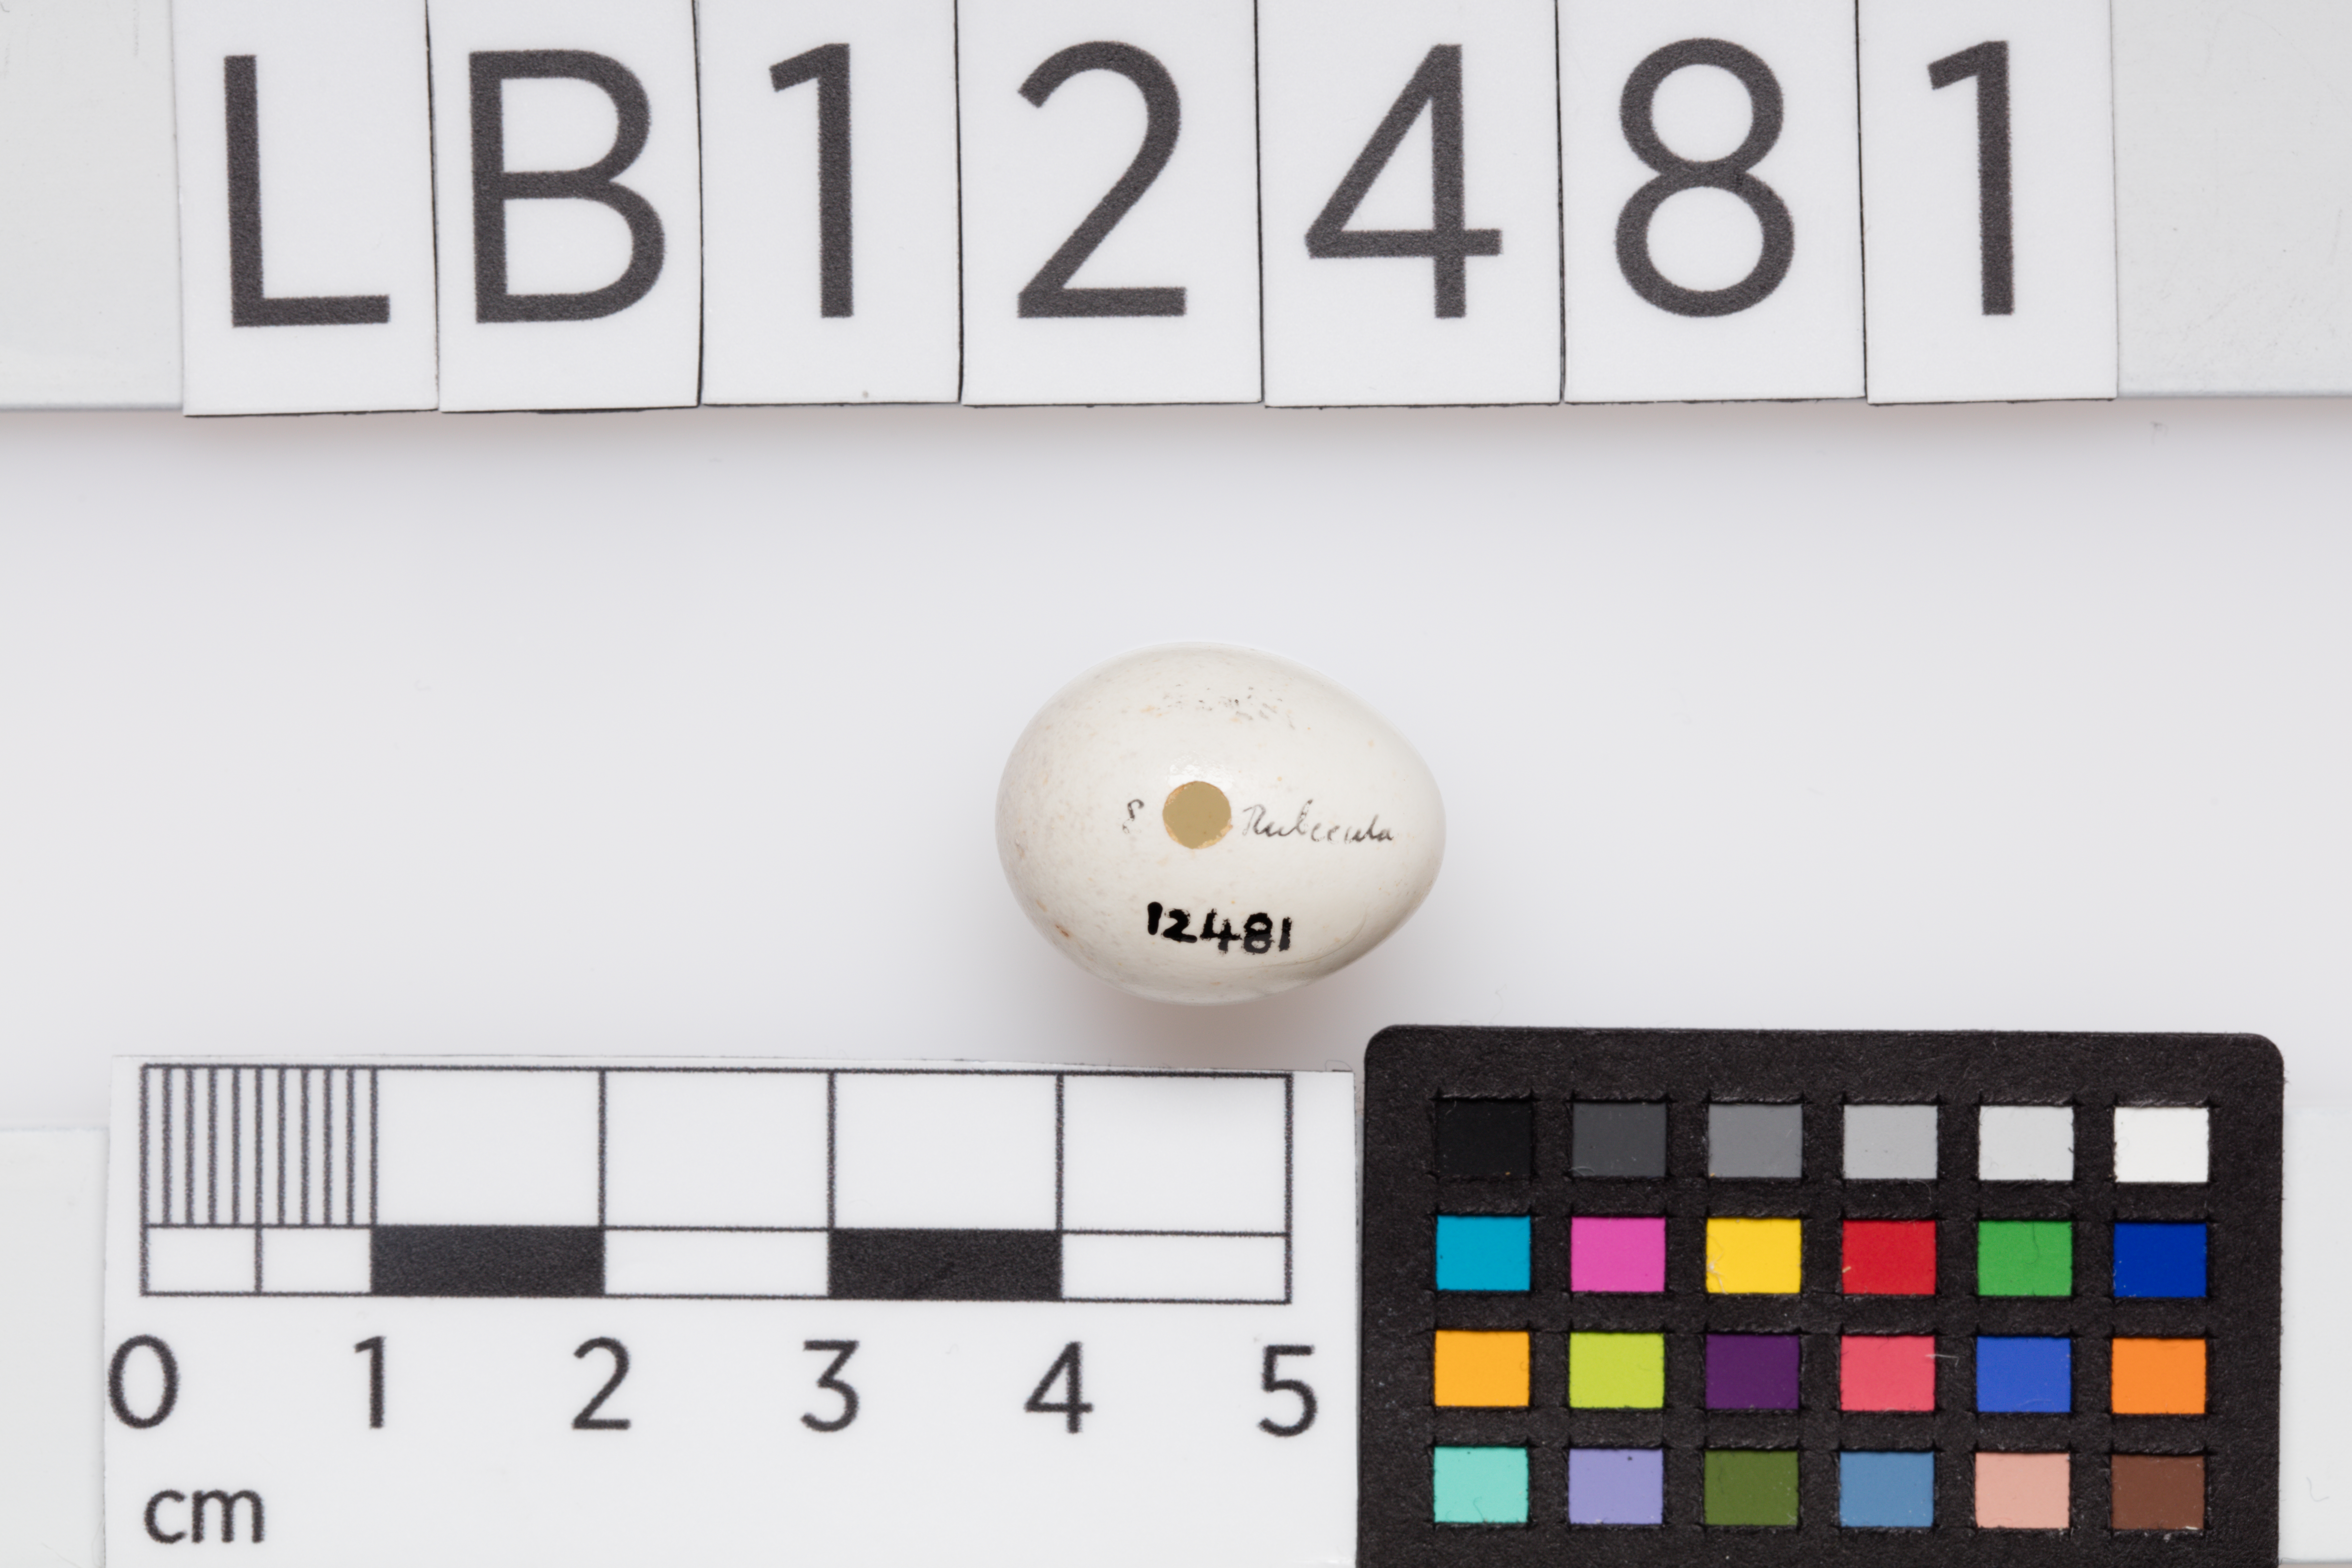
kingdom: Animalia
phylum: Chordata
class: Aves
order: Passeriformes
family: Muscicapidae
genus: Erithacus
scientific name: Erithacus rubecula
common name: European robin
